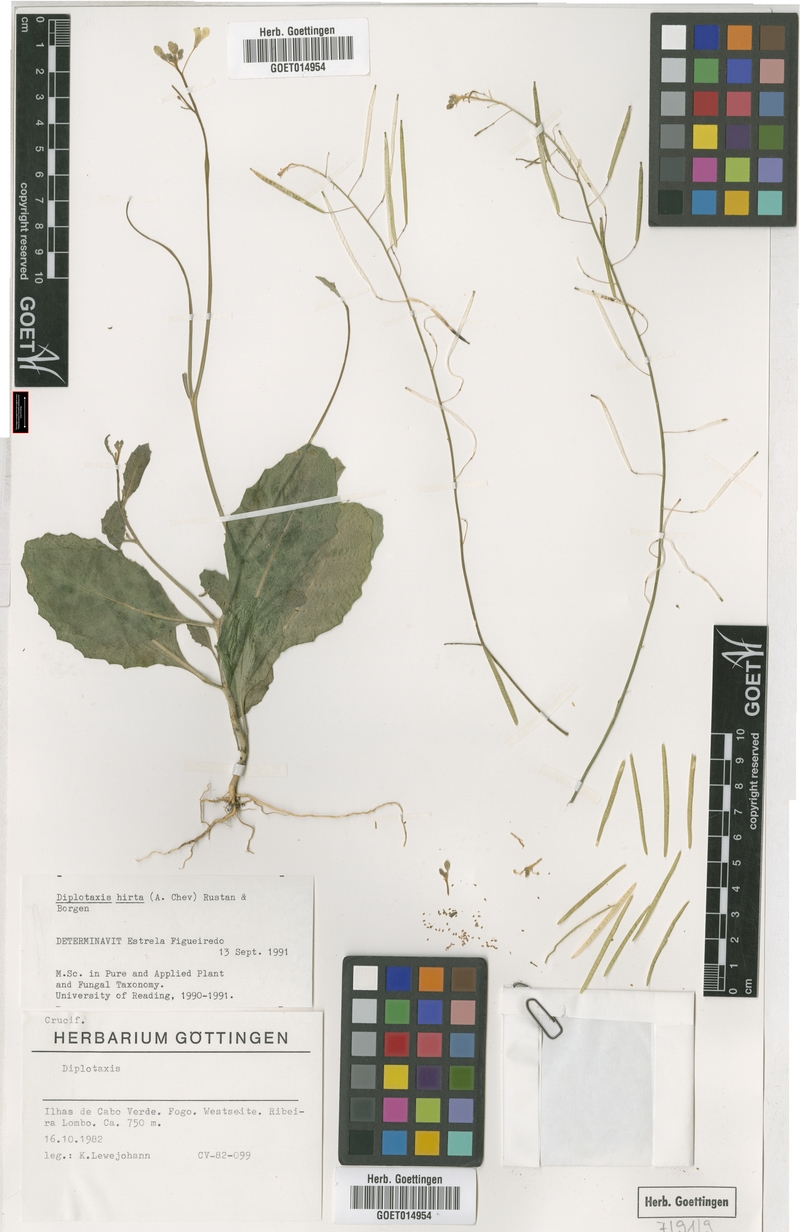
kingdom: Plantae
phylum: Tracheophyta
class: Magnoliopsida
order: Brassicales
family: Brassicaceae
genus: Diplotaxis
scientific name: Diplotaxis hirta
